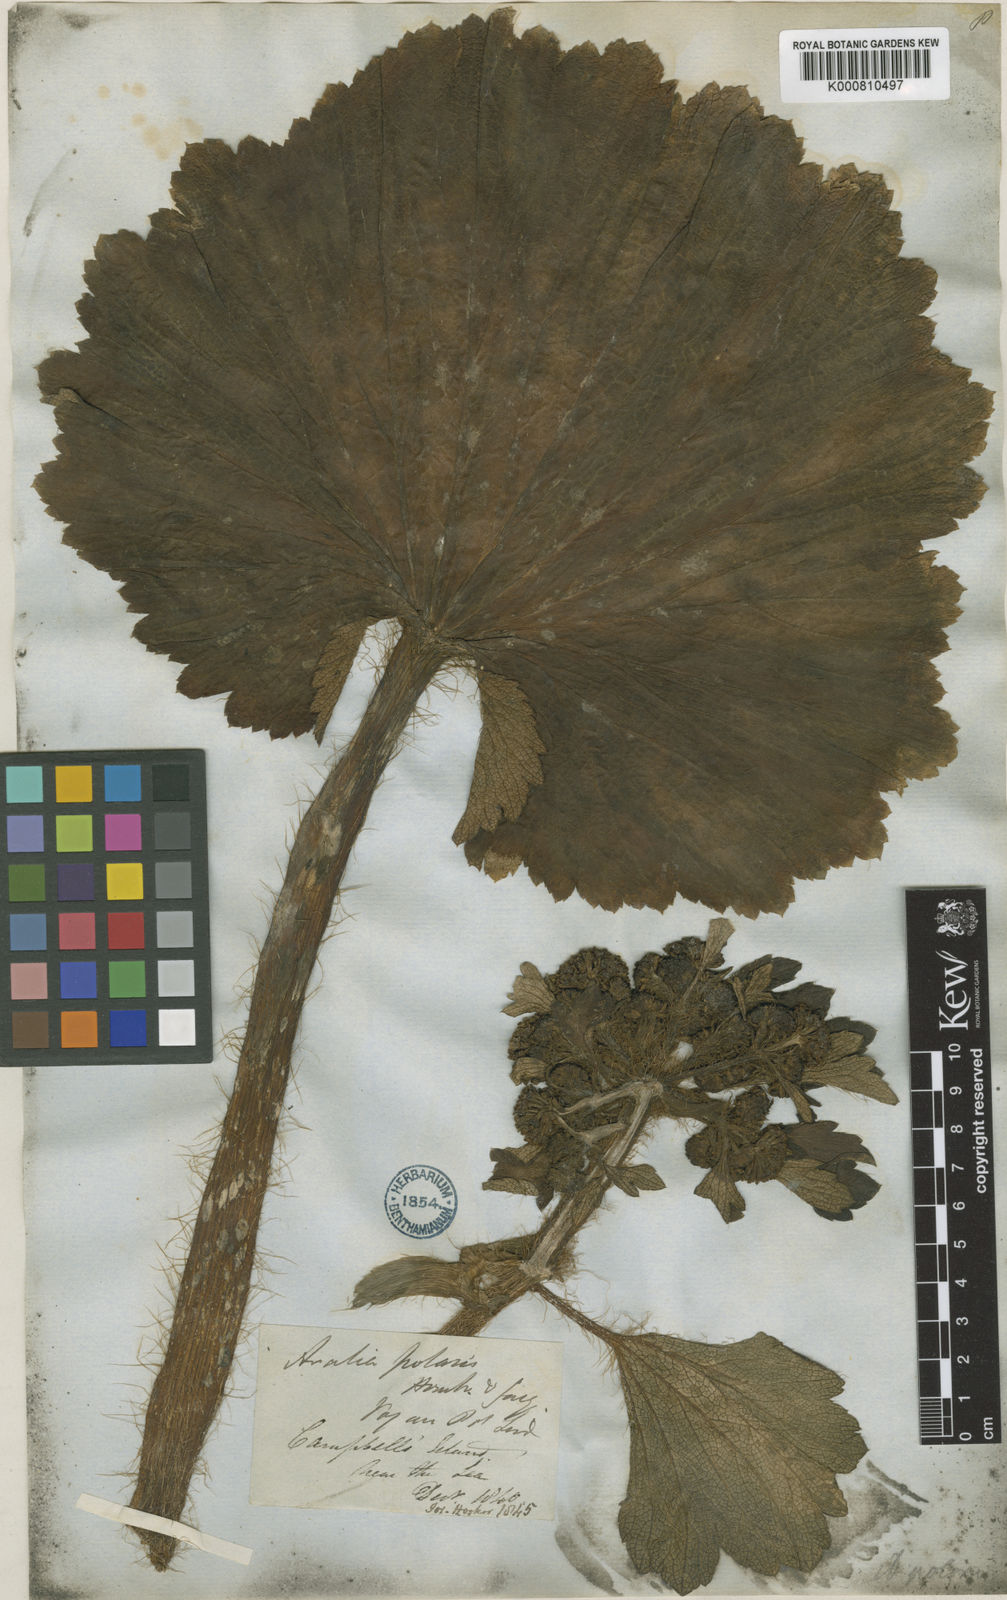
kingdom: Plantae
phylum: Tracheophyta
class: Magnoliopsida
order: Apiales
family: Apiaceae
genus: Azorella
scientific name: Azorella polaris
